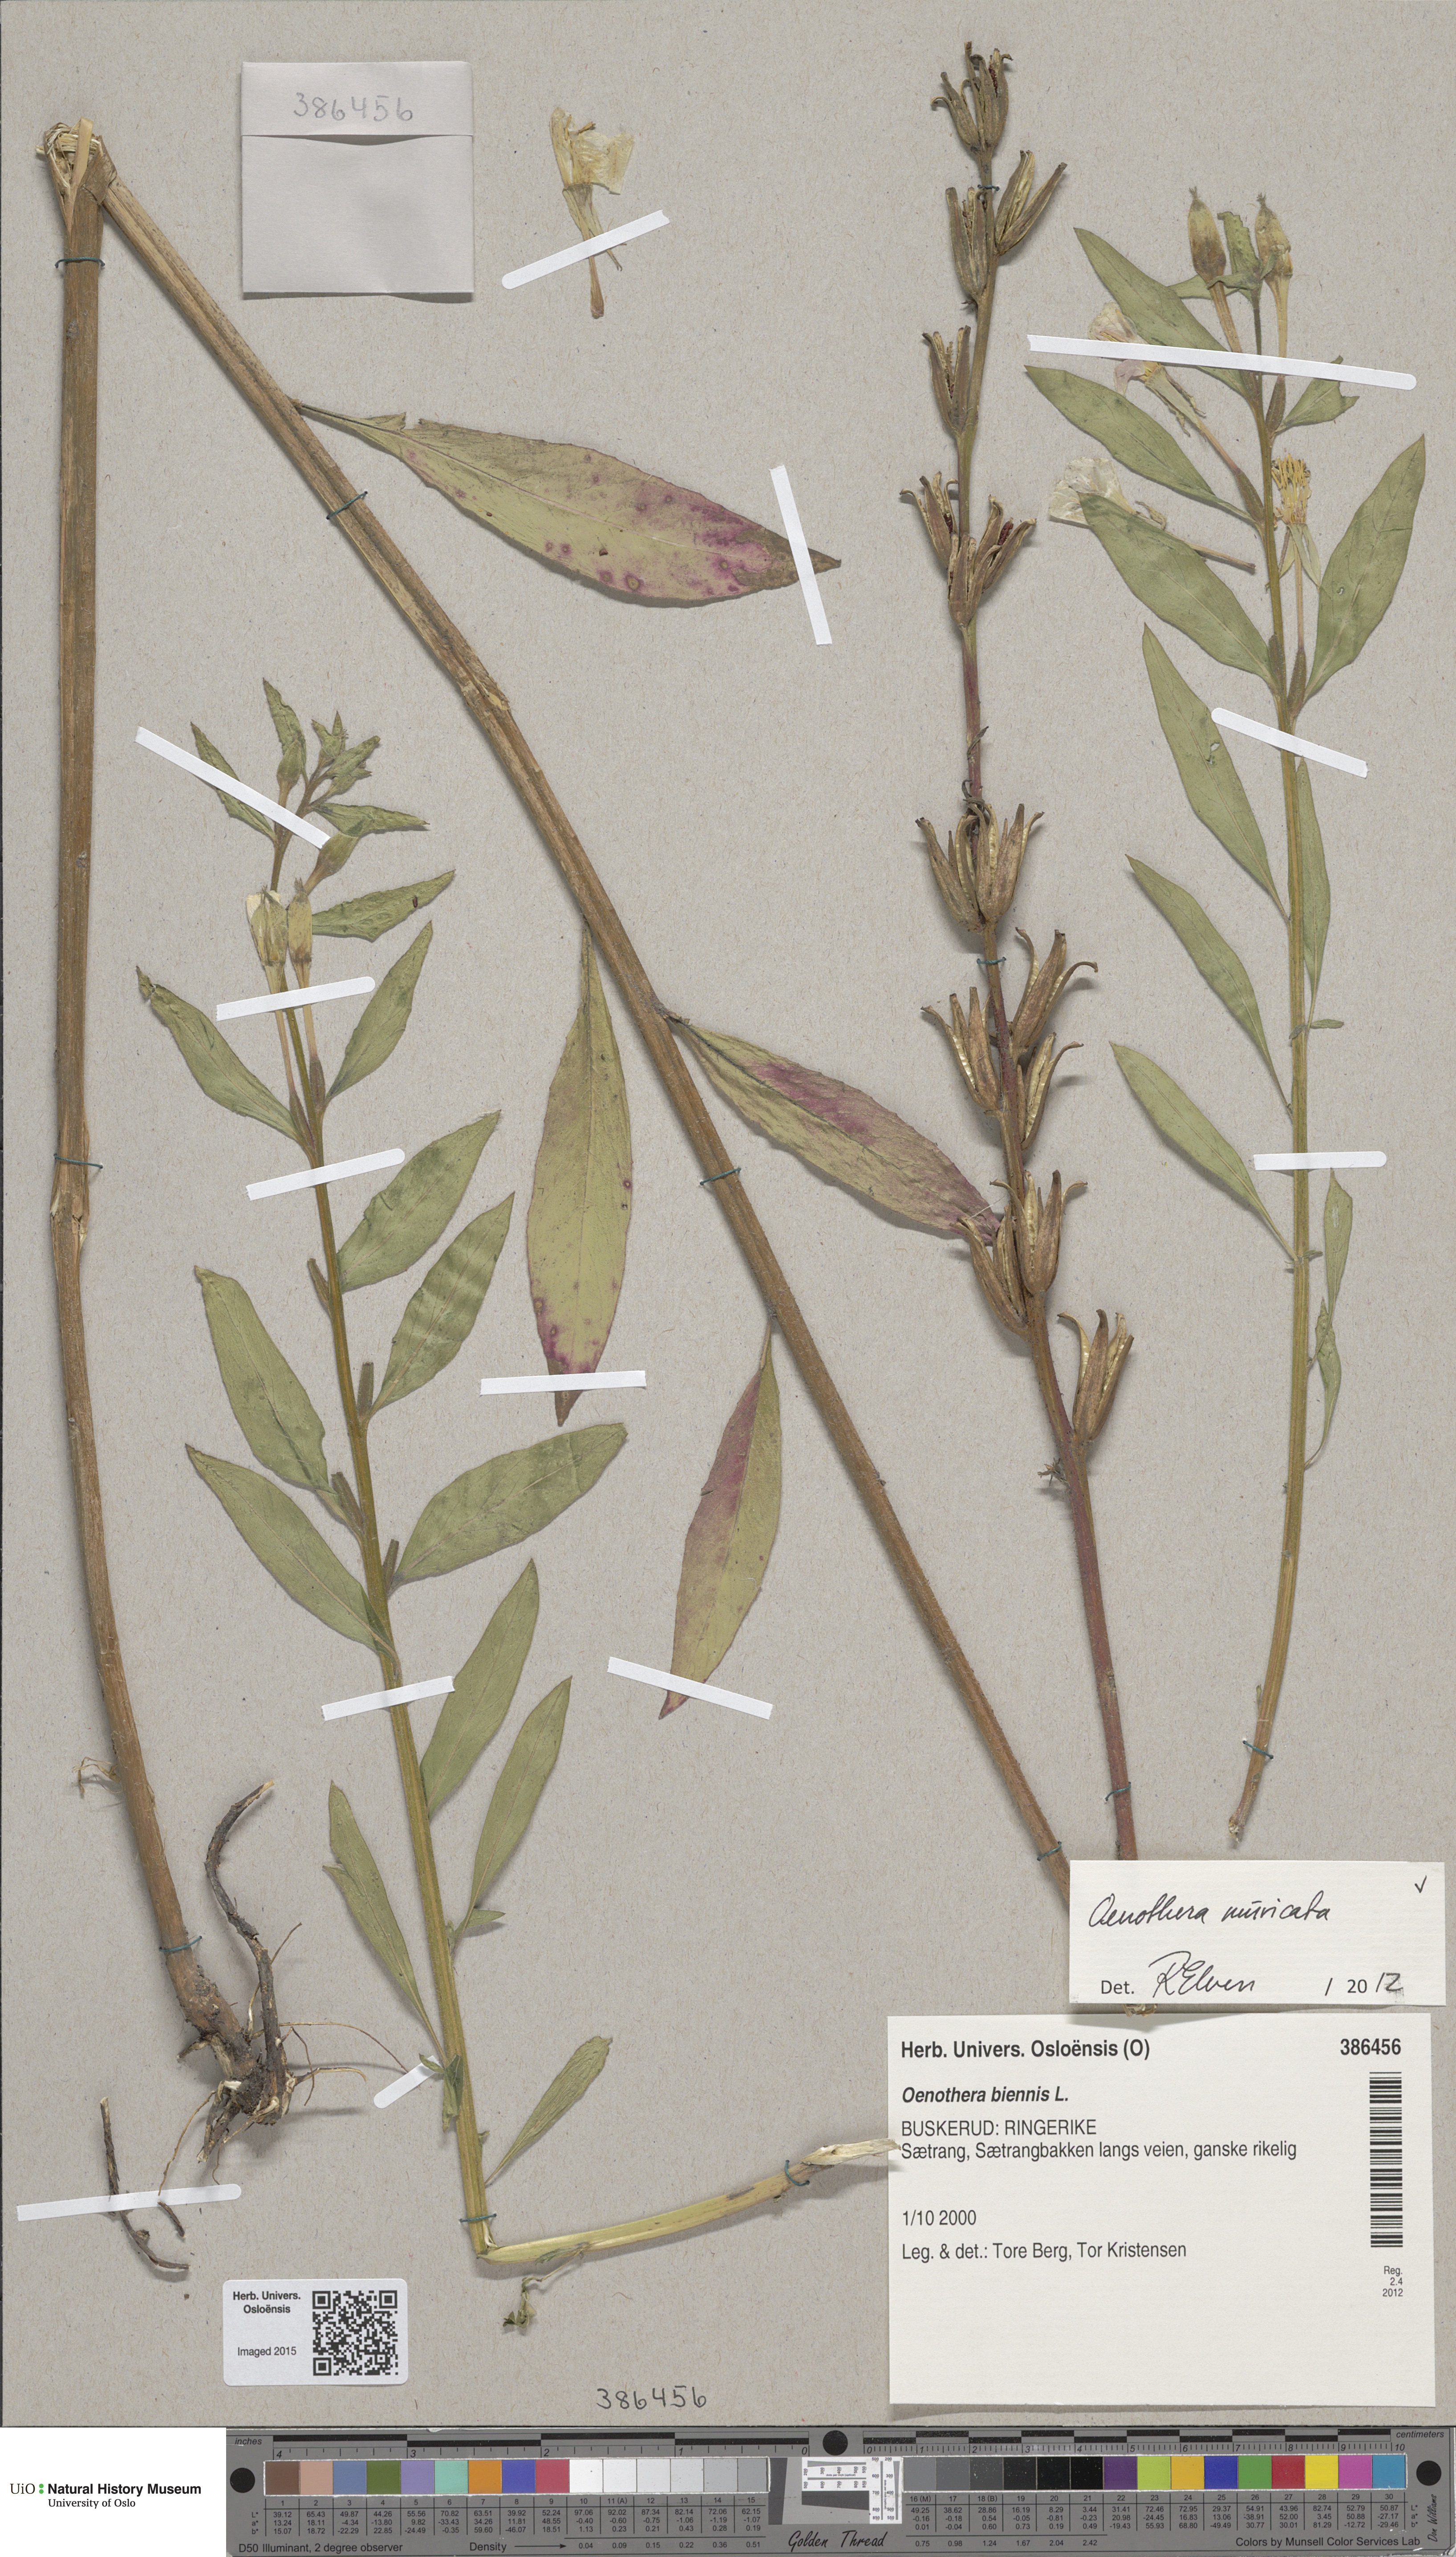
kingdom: Plantae
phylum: Tracheophyta
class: Magnoliopsida
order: Myrtales
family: Onagraceae
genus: Oenothera
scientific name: Oenothera biennis
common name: Common evening-primrose
